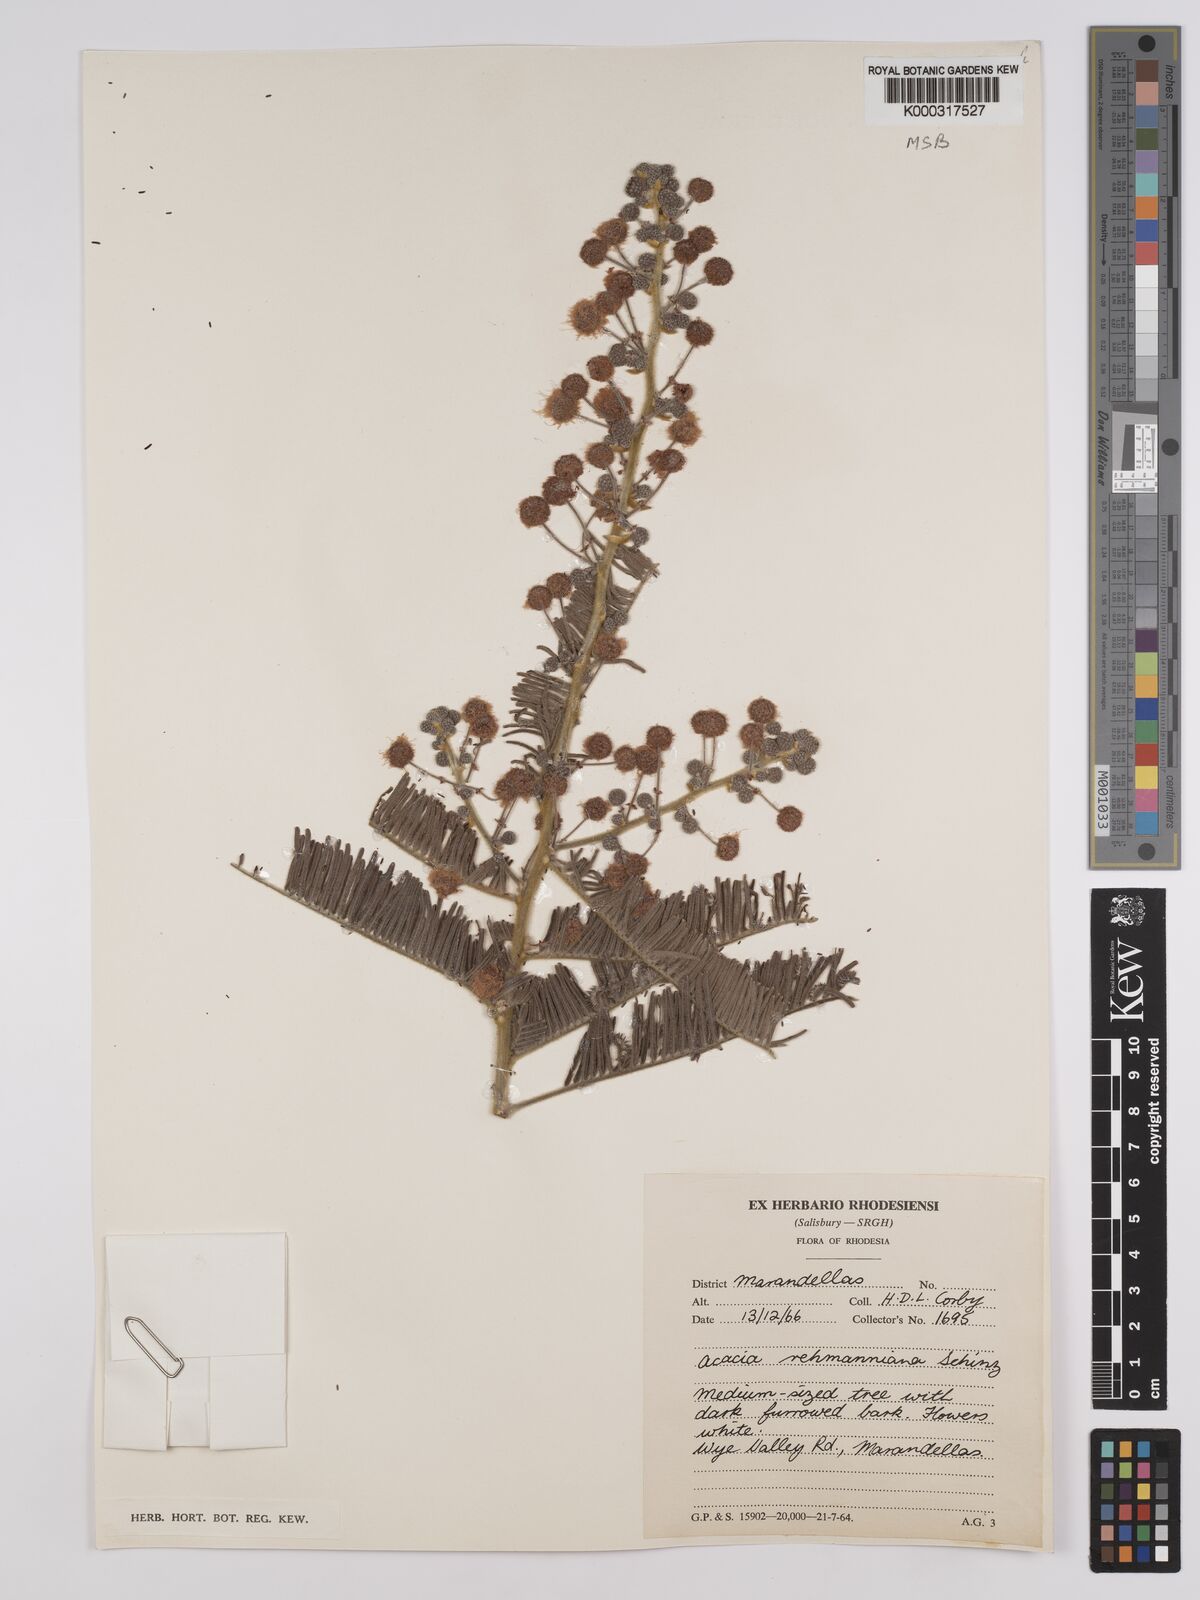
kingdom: Plantae
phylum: Tracheophyta
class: Magnoliopsida
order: Fabales
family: Fabaceae
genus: Vachellia
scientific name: Vachellia rehmanniana
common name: Silky thorn
